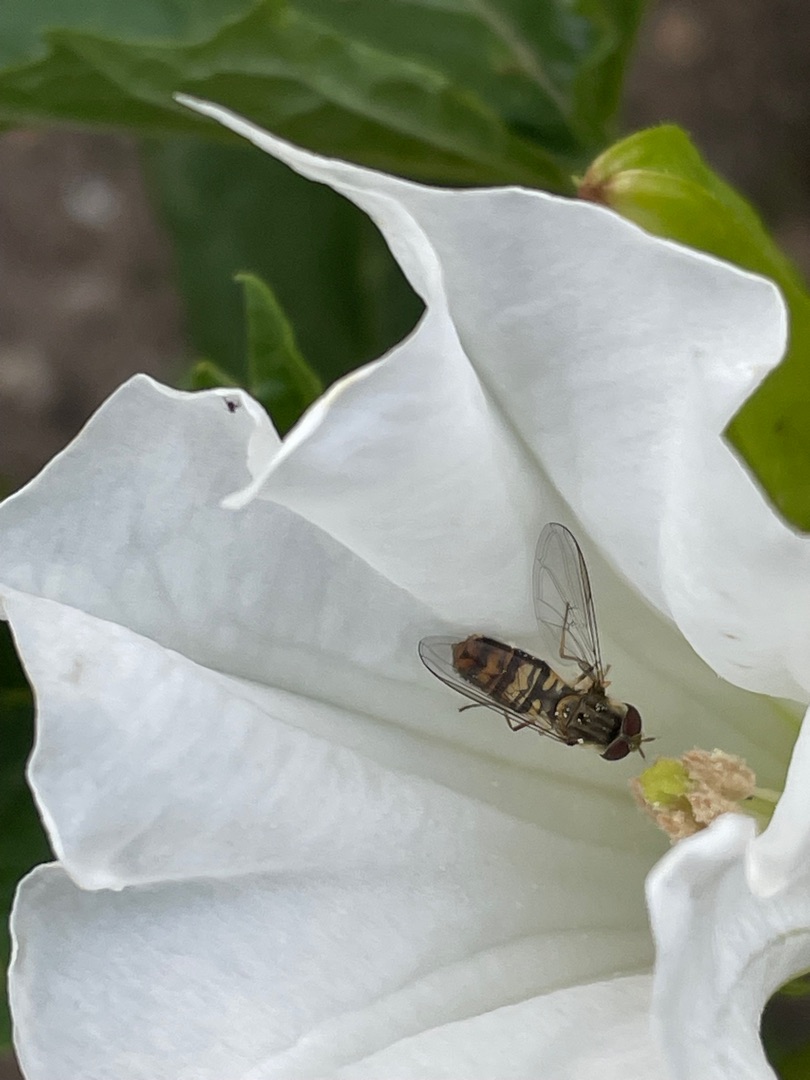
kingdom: Animalia
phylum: Arthropoda
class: Insecta
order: Diptera
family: Syrphidae
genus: Episyrphus
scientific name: Episyrphus balteatus
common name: Dobbeltbåndet svirreflue
